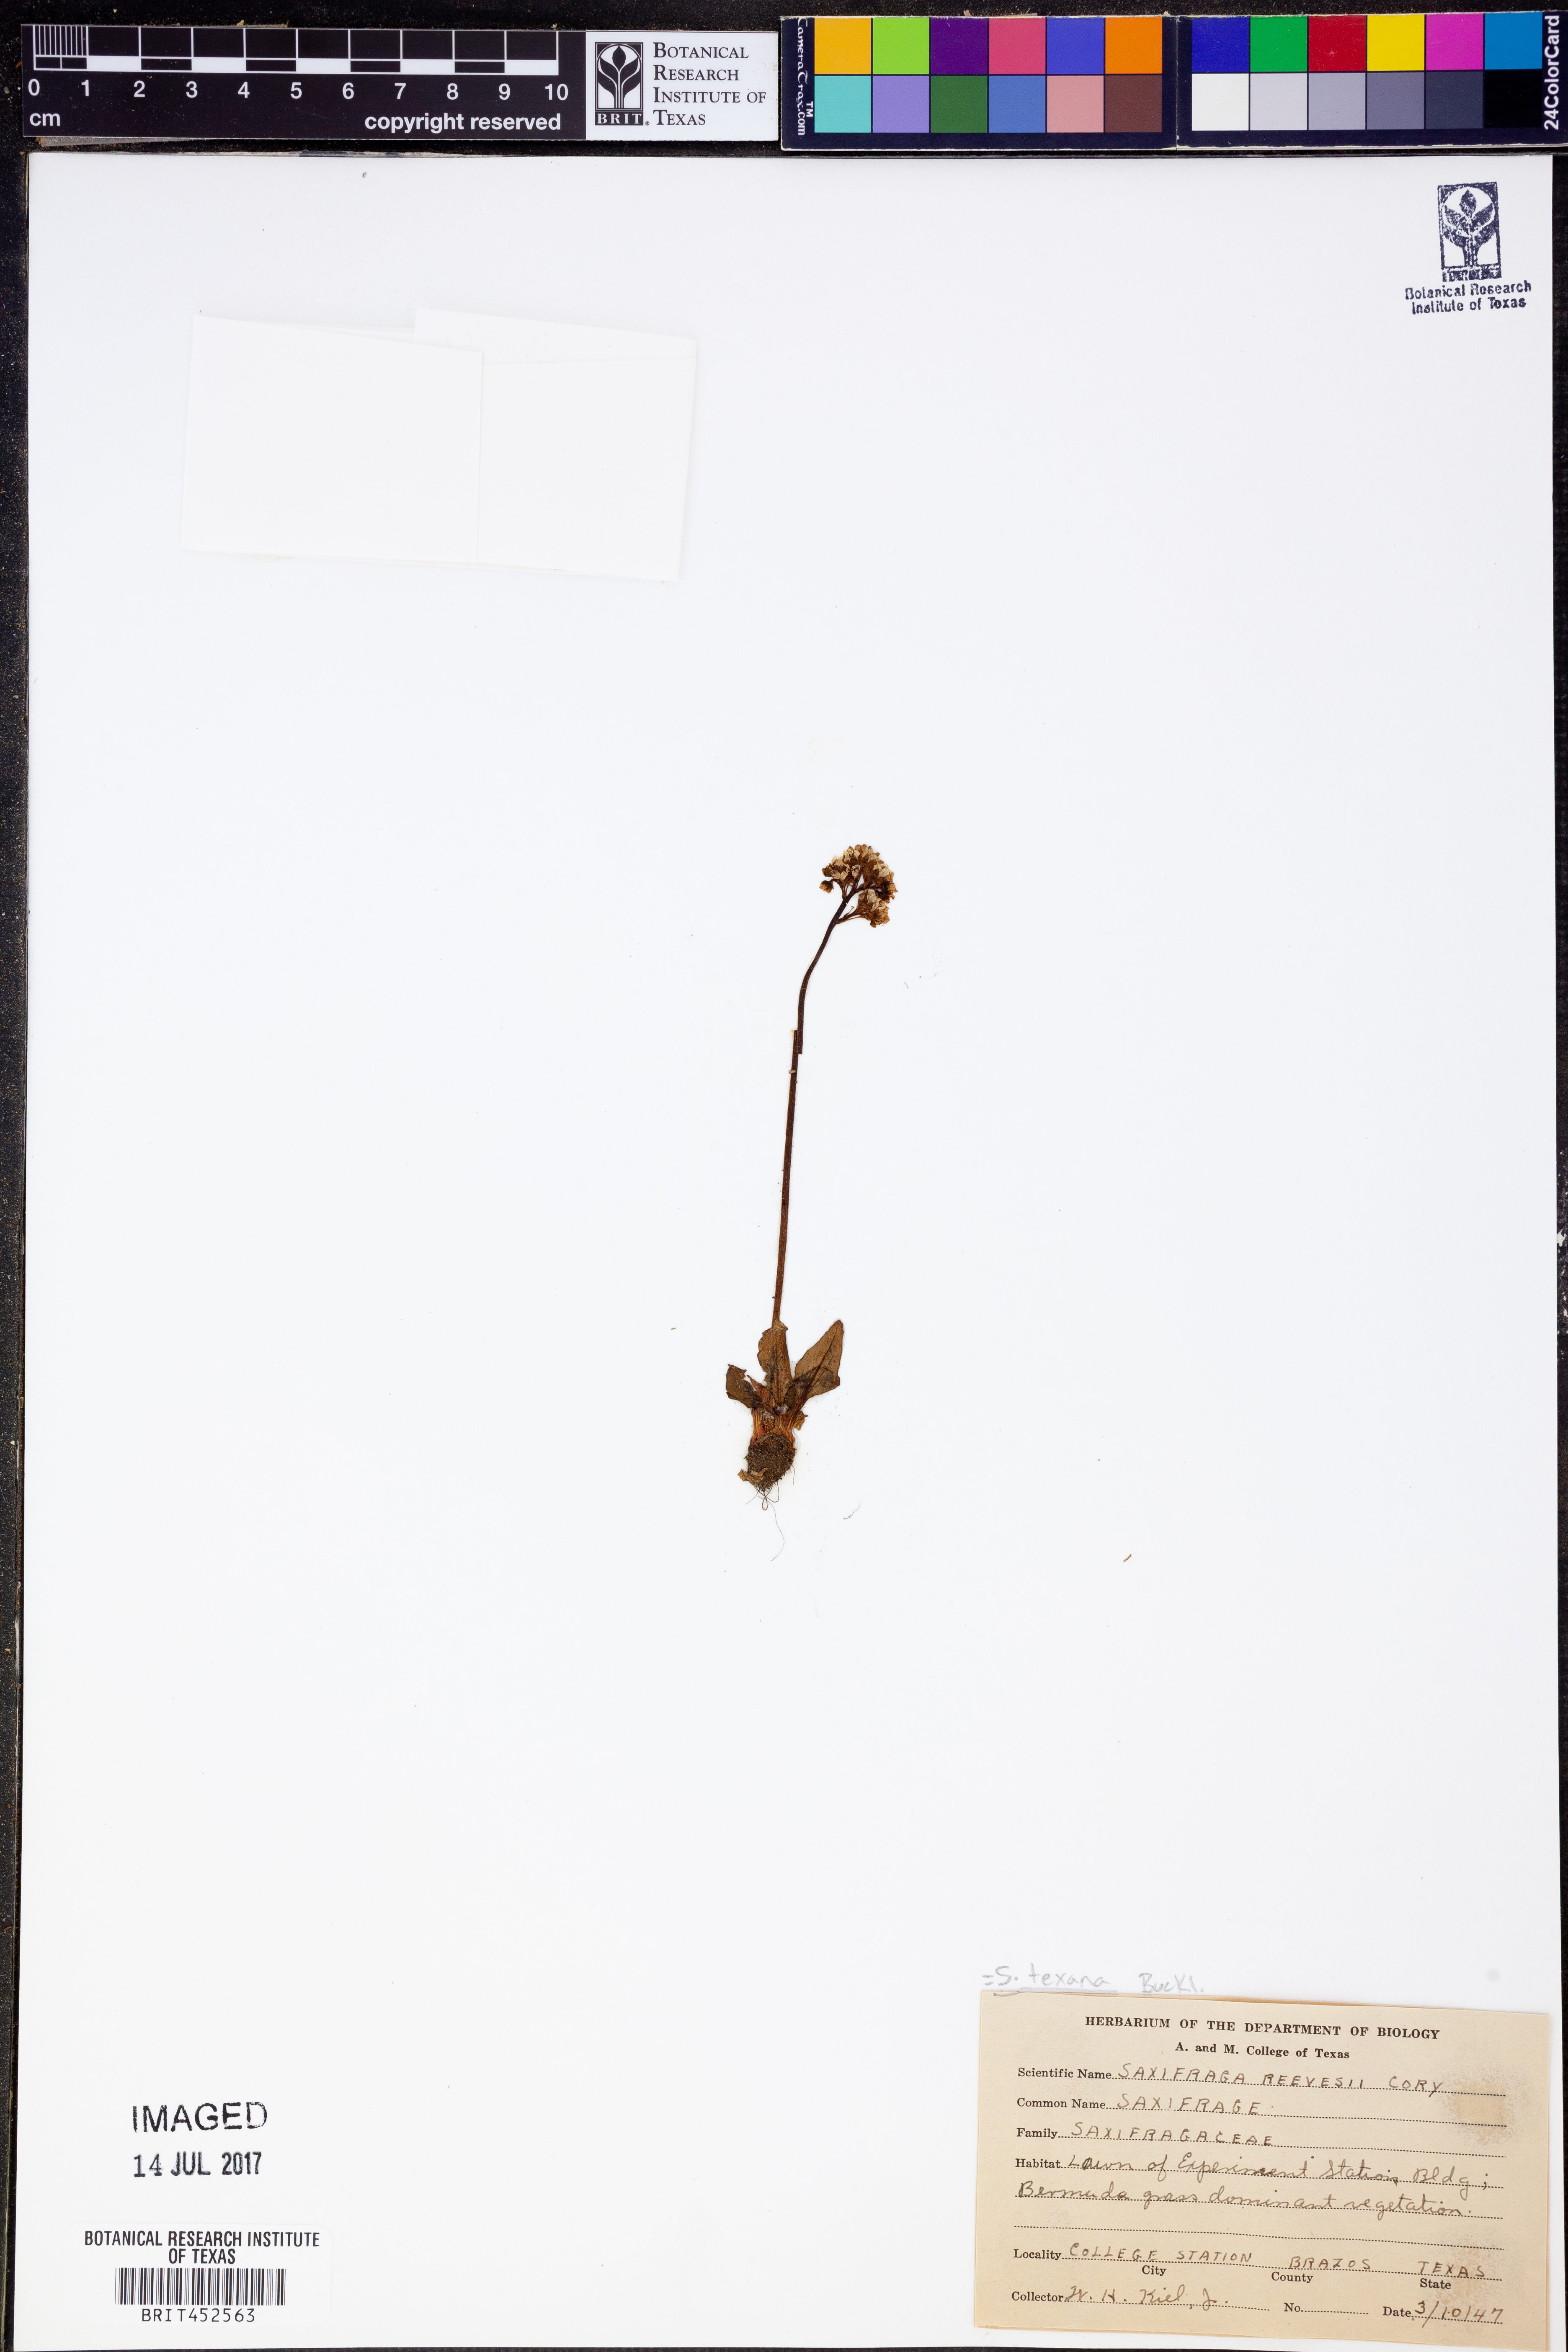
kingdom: Plantae
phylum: Tracheophyta
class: Magnoliopsida
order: Saxifragales
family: Saxifragaceae
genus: Micranthes
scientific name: Micranthes texana
